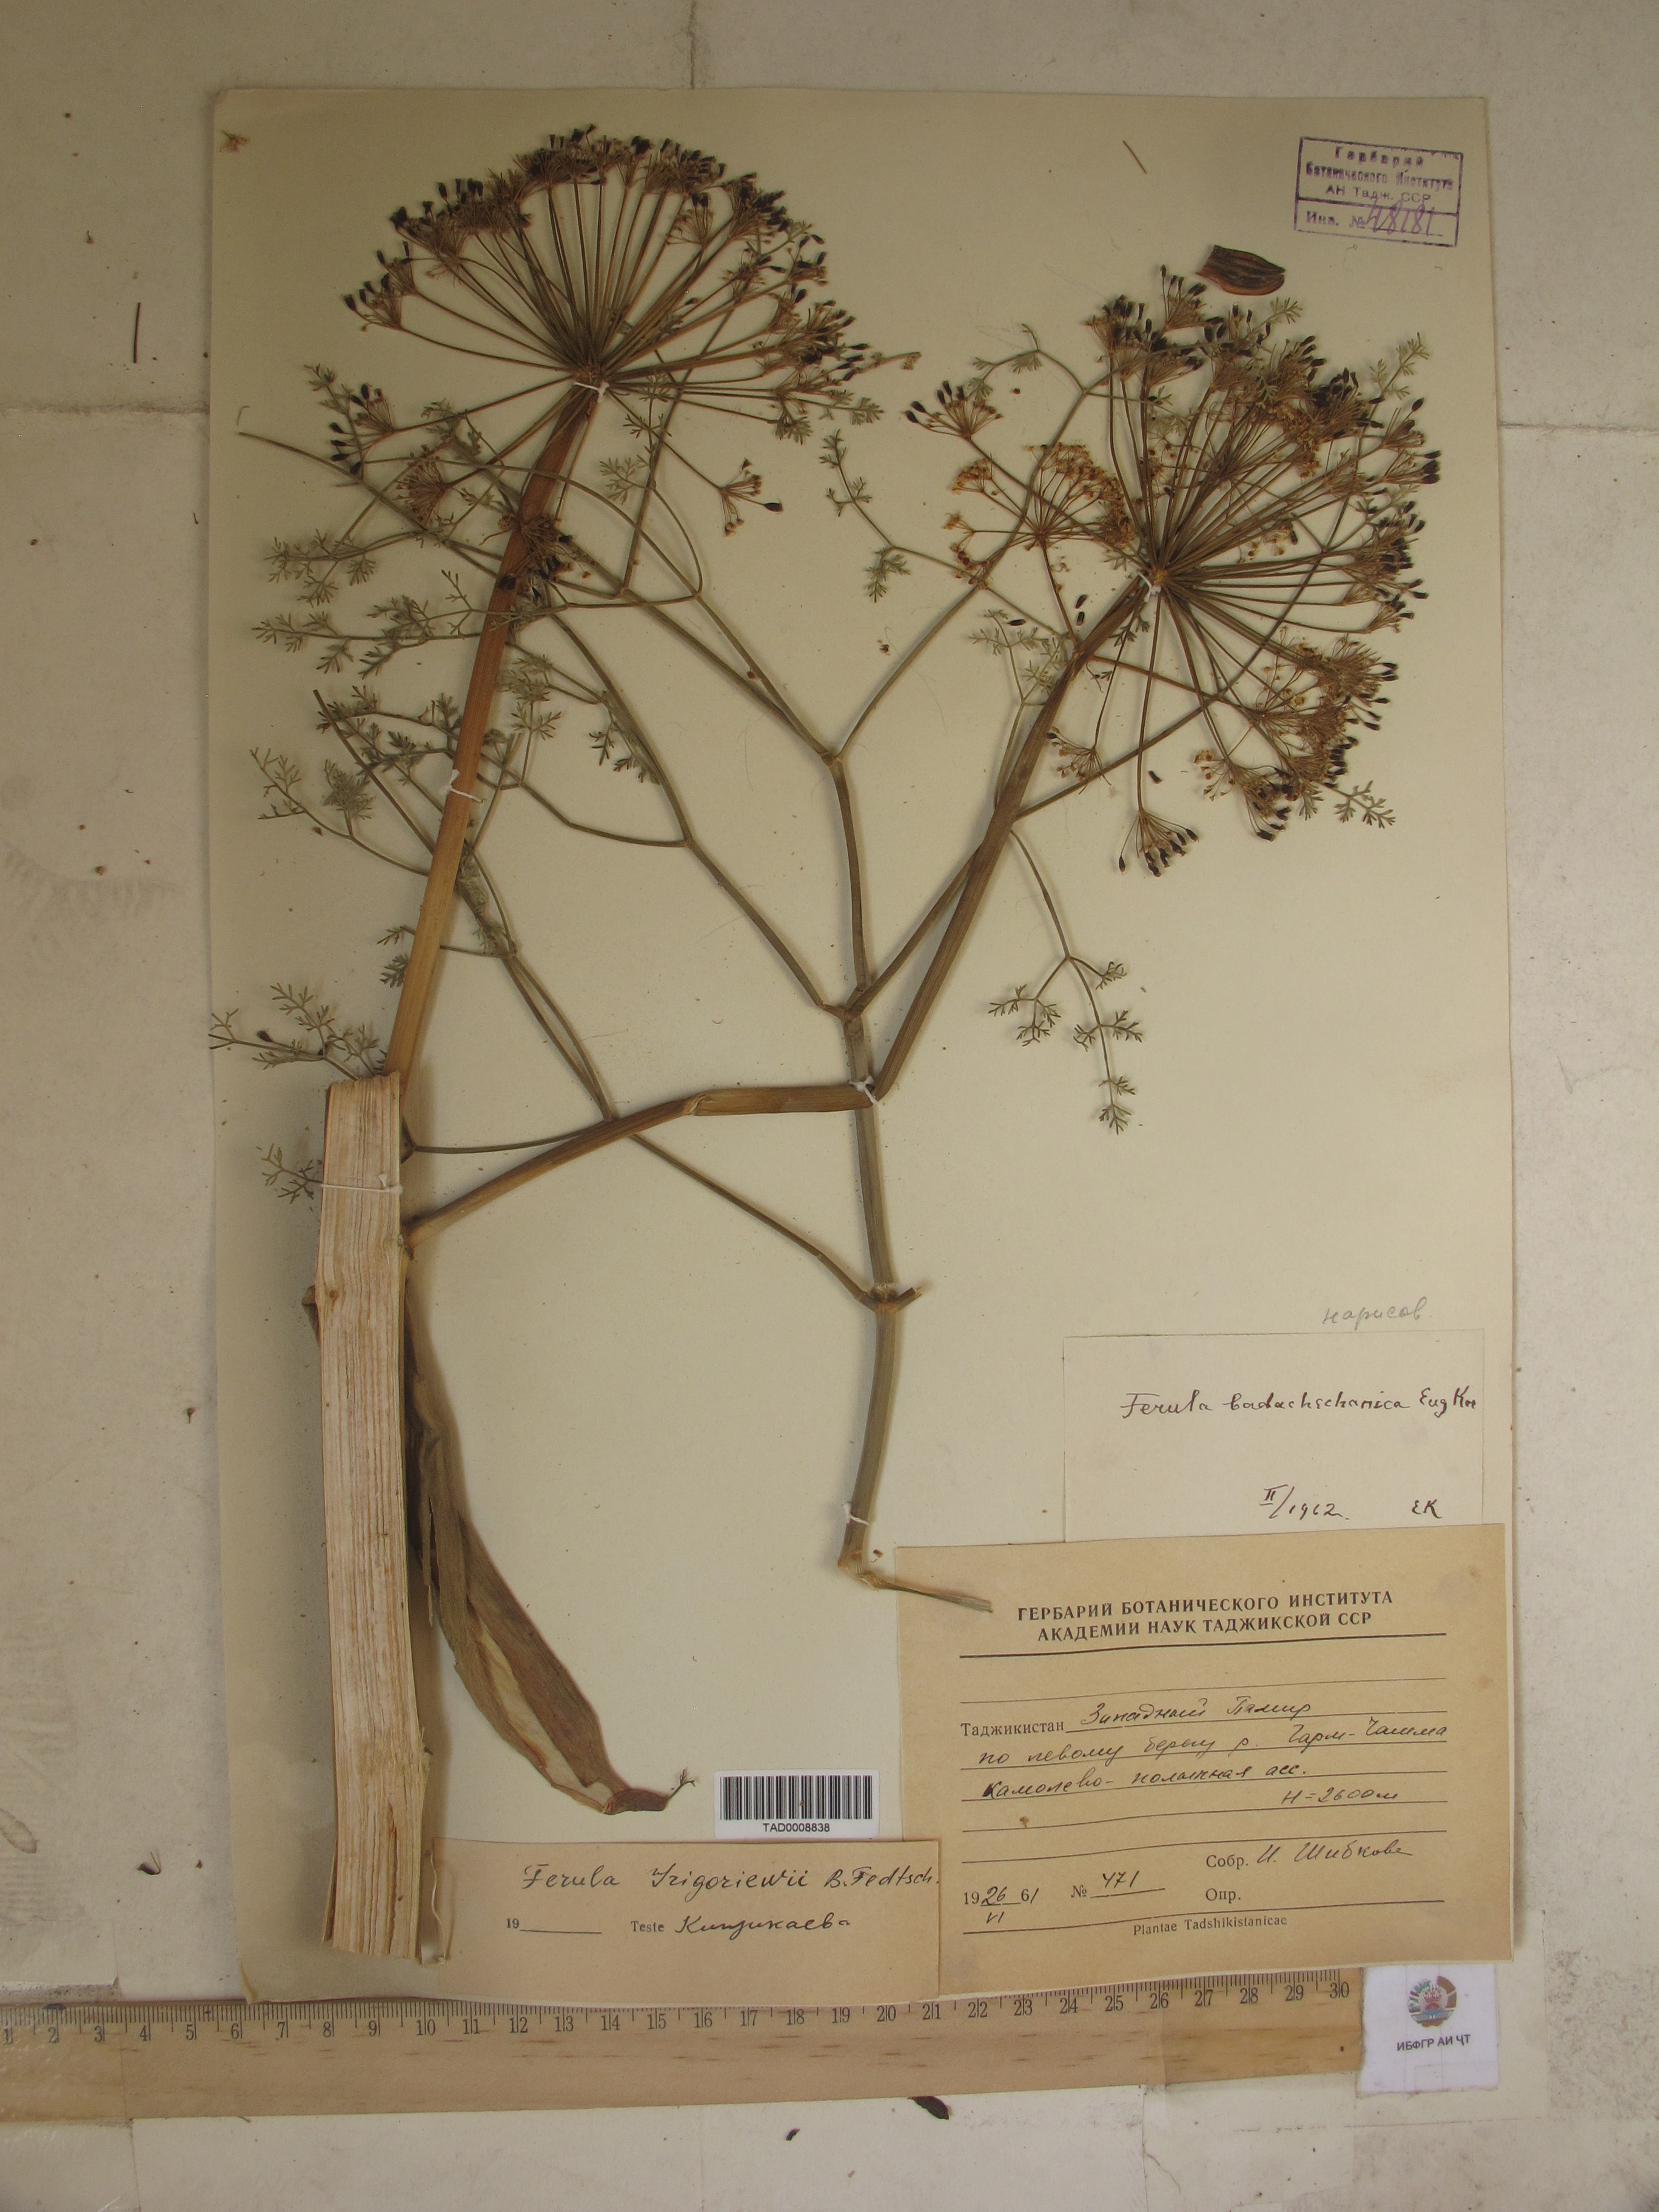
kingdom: Plantae
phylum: Tracheophyta
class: Magnoliopsida
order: Apiales
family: Apiaceae
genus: Ferula
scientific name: Ferula grigoriewii
